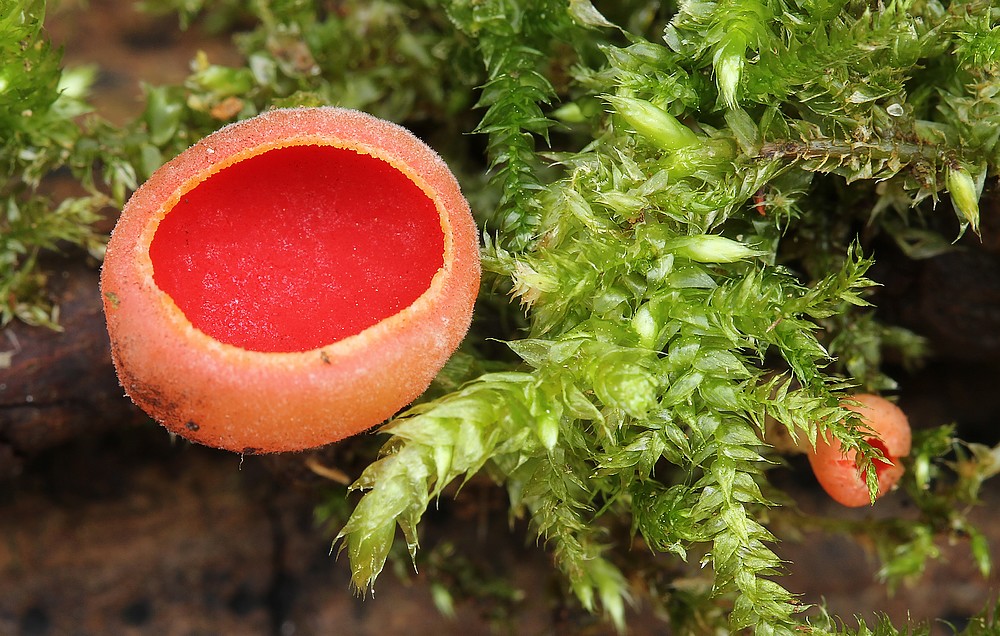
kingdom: Fungi
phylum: Ascomycota
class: Pezizomycetes
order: Pezizales
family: Sarcoscyphaceae
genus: Sarcoscypha
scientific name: Sarcoscypha austriaca
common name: krølhåret pragtbæger
